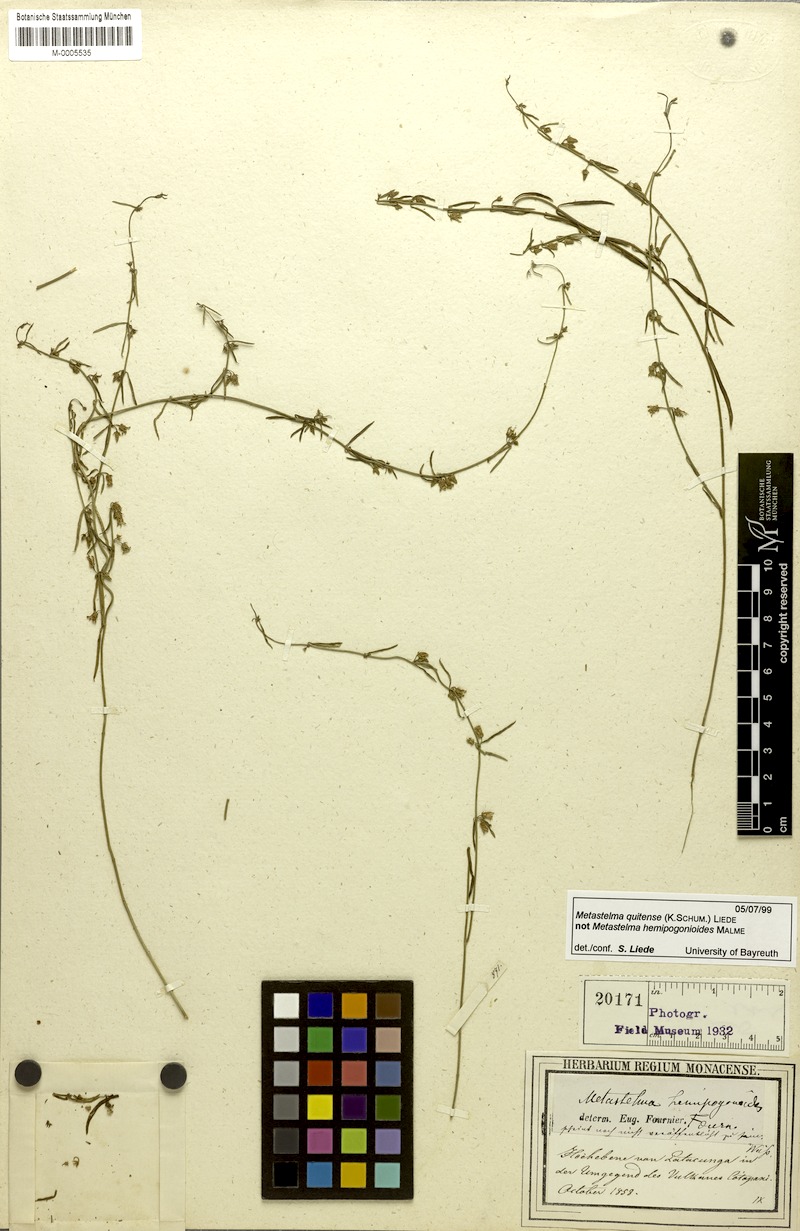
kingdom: Plantae
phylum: Tracheophyta
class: Magnoliopsida
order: Gentianales
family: Apocynaceae
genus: Metastelma
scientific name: Metastelma quitense
